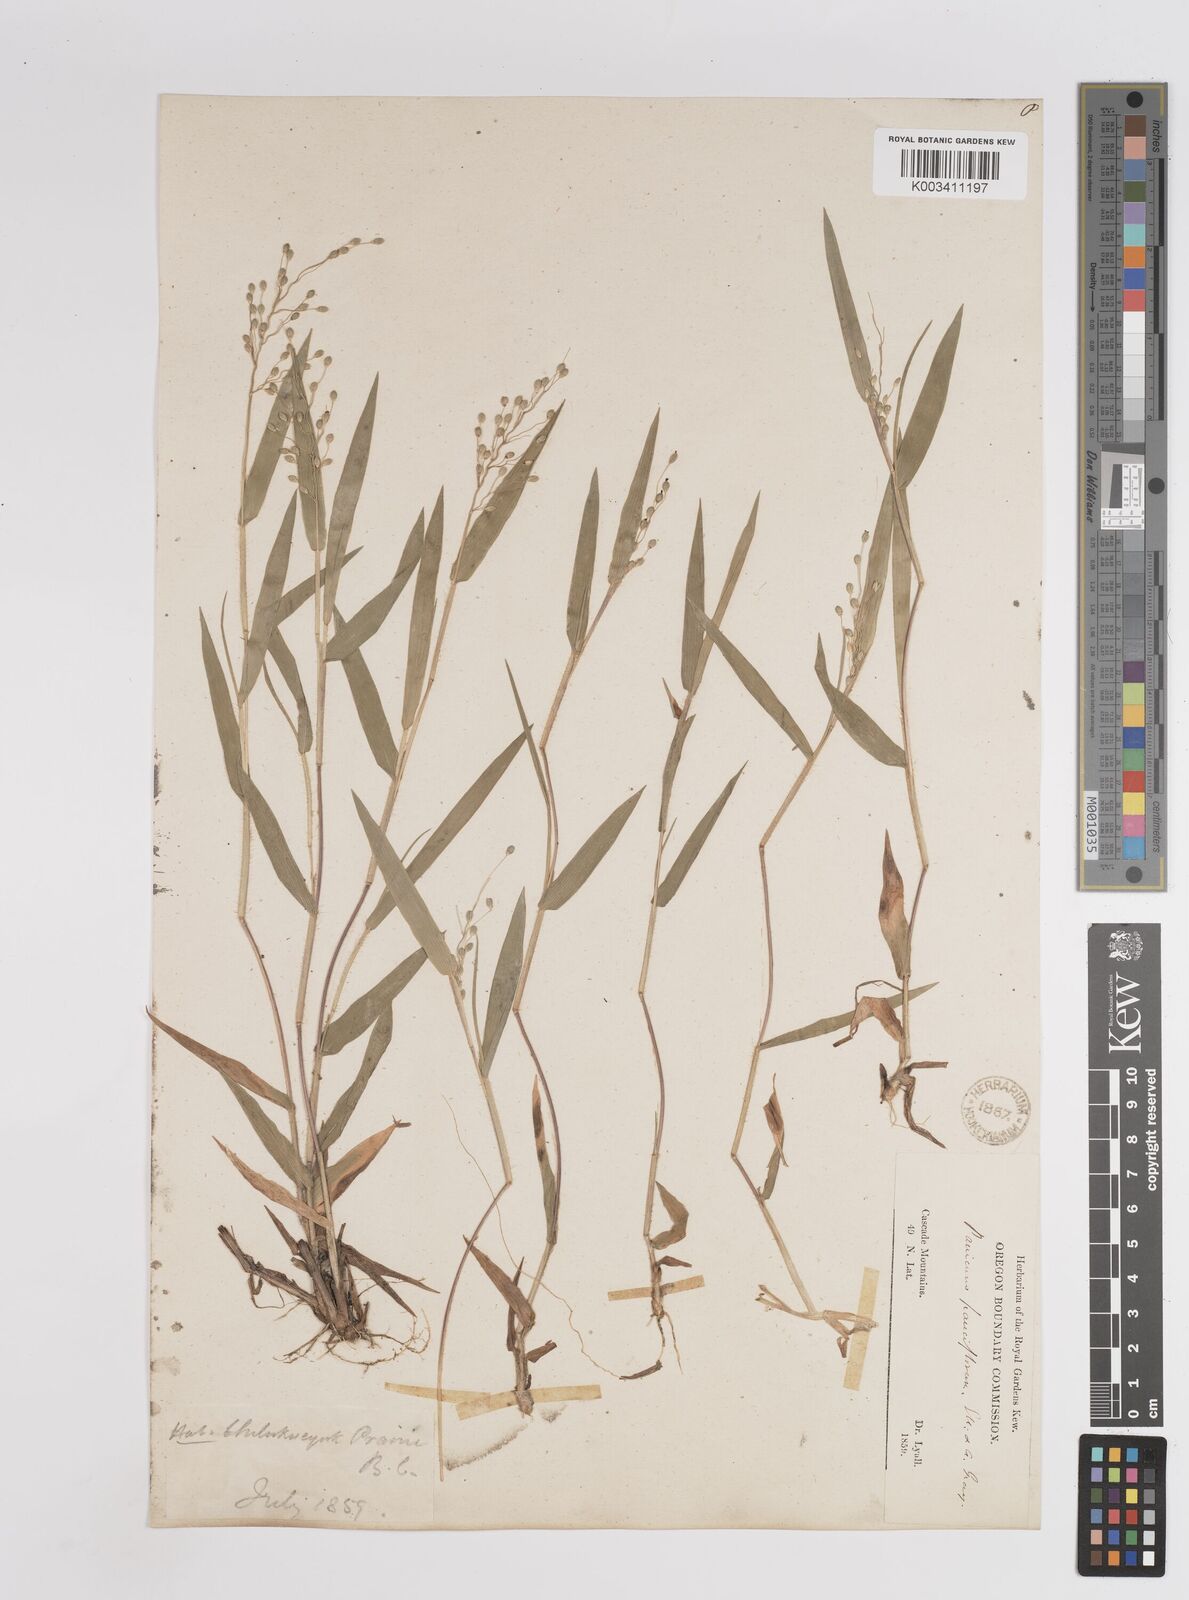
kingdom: Plantae
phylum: Tracheophyta
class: Liliopsida
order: Poales
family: Poaceae
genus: Dichanthelium
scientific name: Dichanthelium oligosanthes
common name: Few-anther obscuregrass
